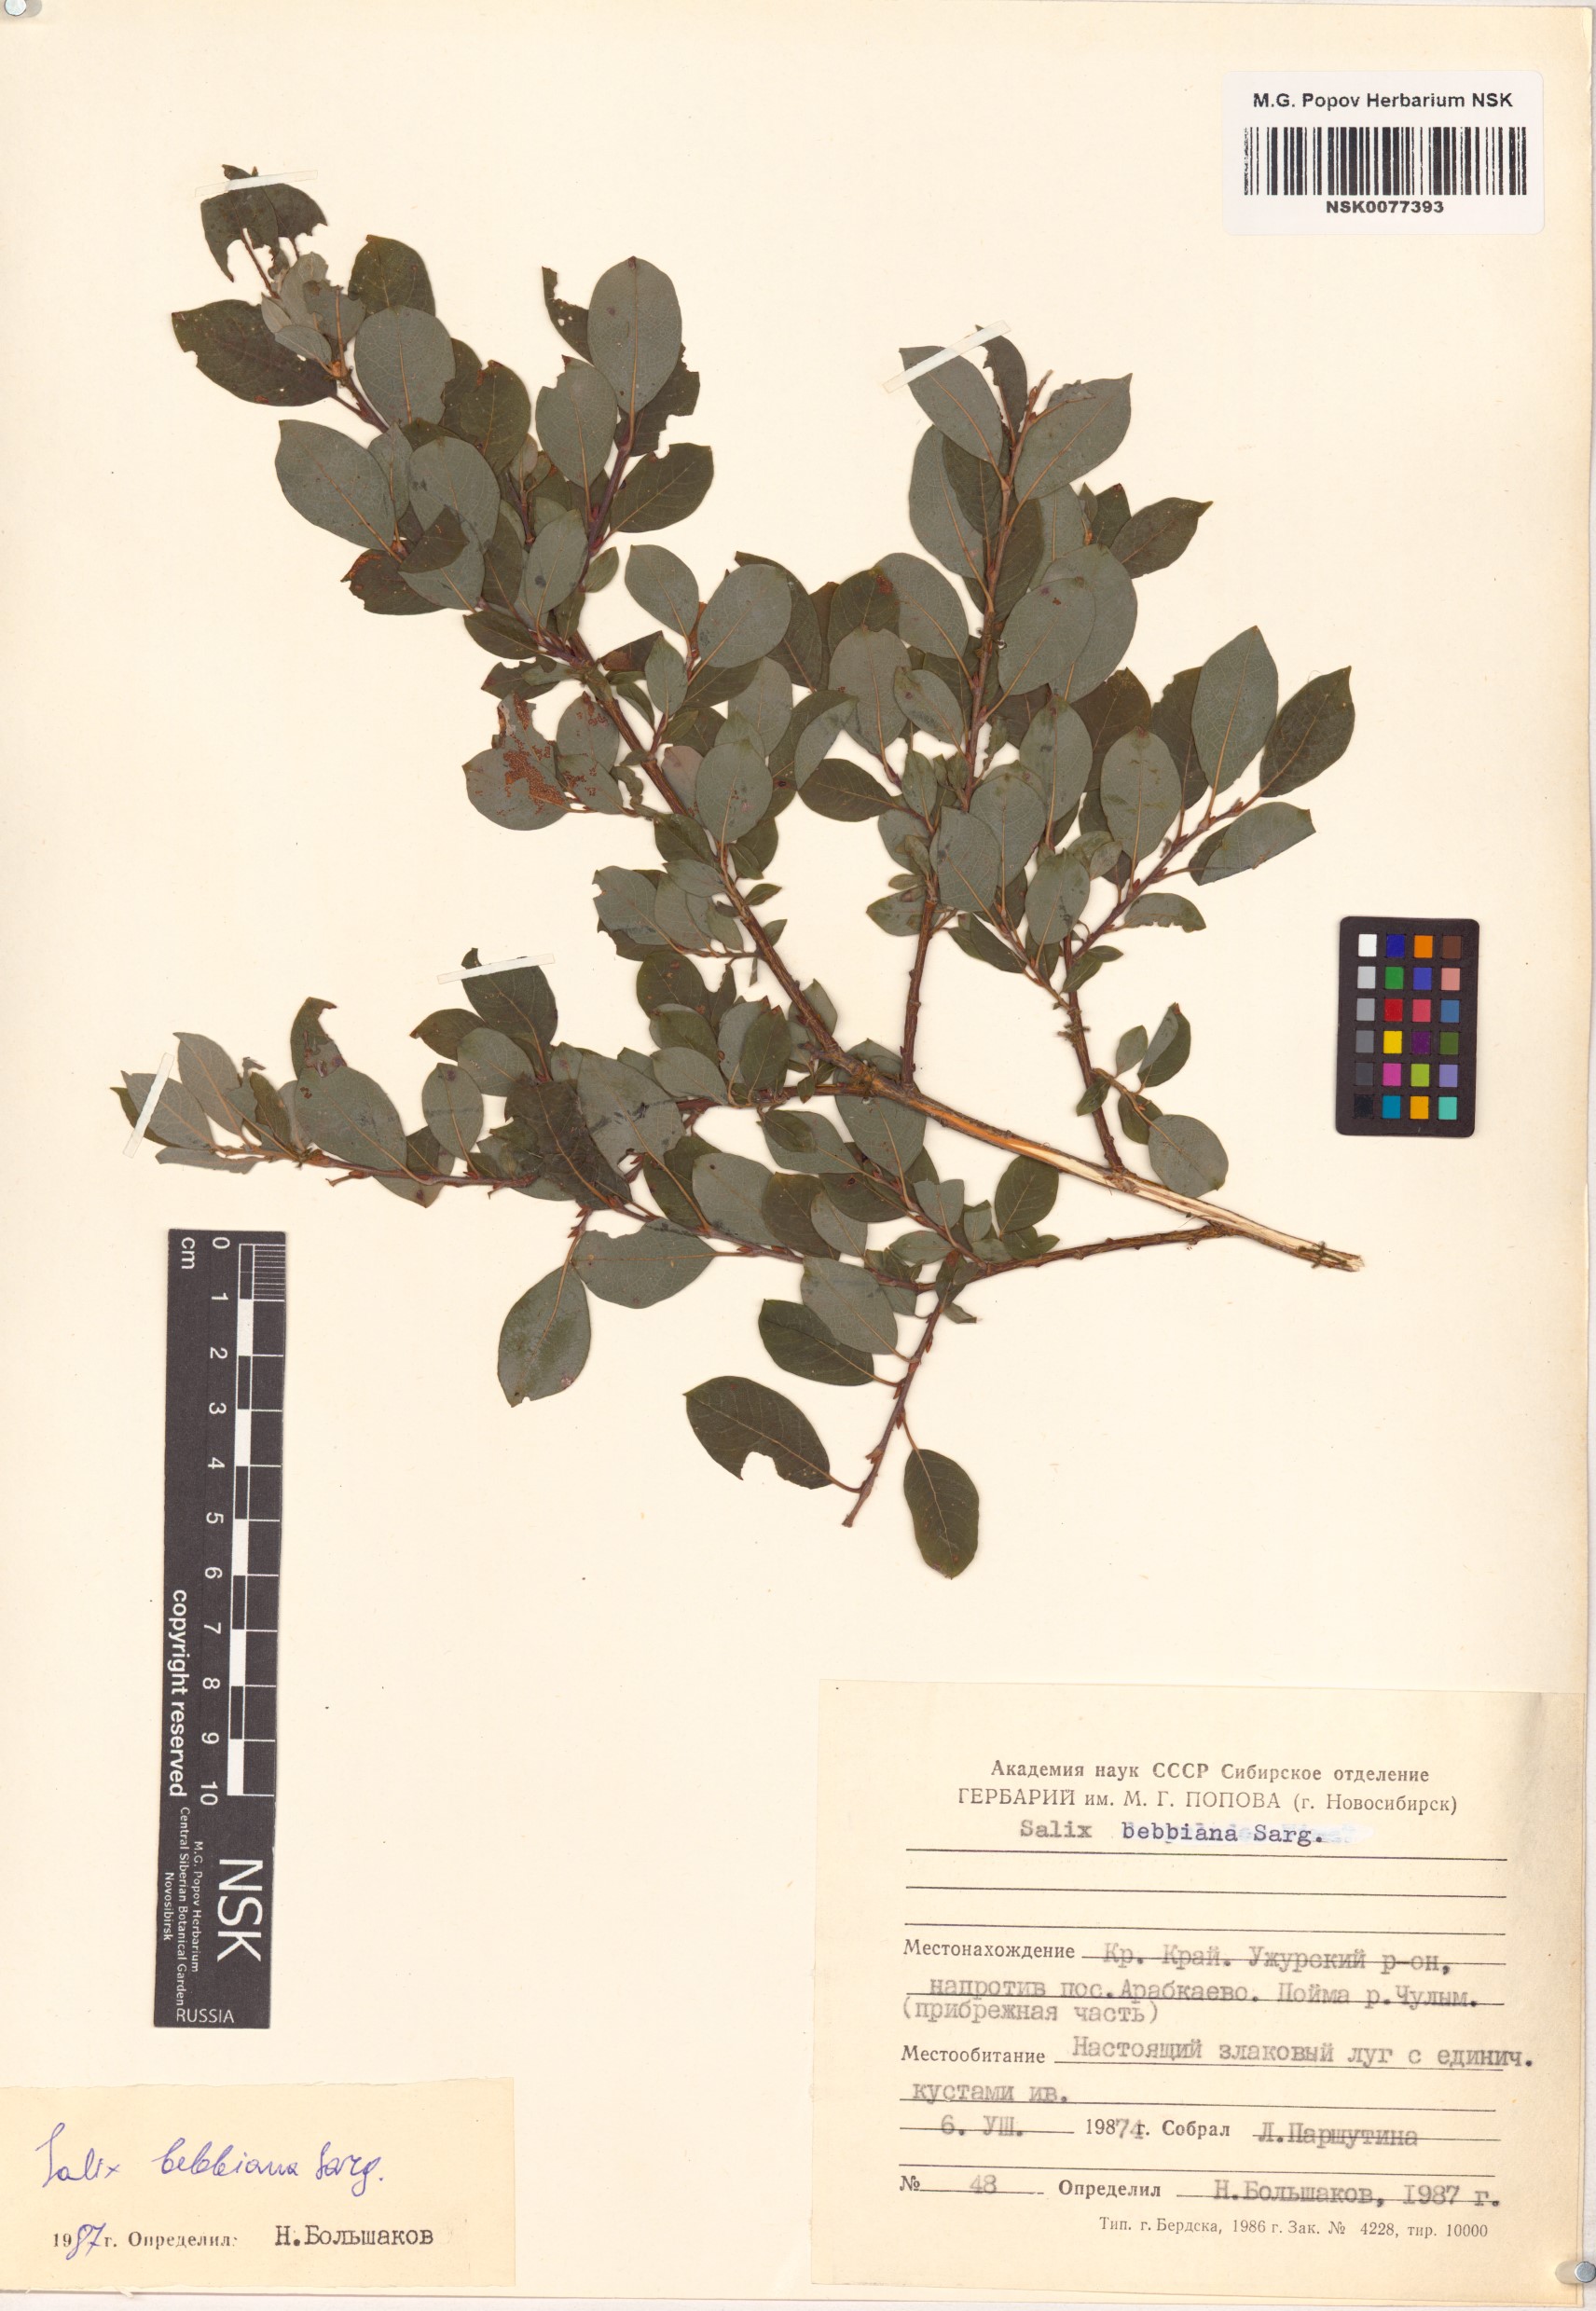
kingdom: Plantae
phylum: Tracheophyta
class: Magnoliopsida
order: Malpighiales
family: Salicaceae
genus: Salix
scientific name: Salix bebbiana
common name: Bebb's willow
